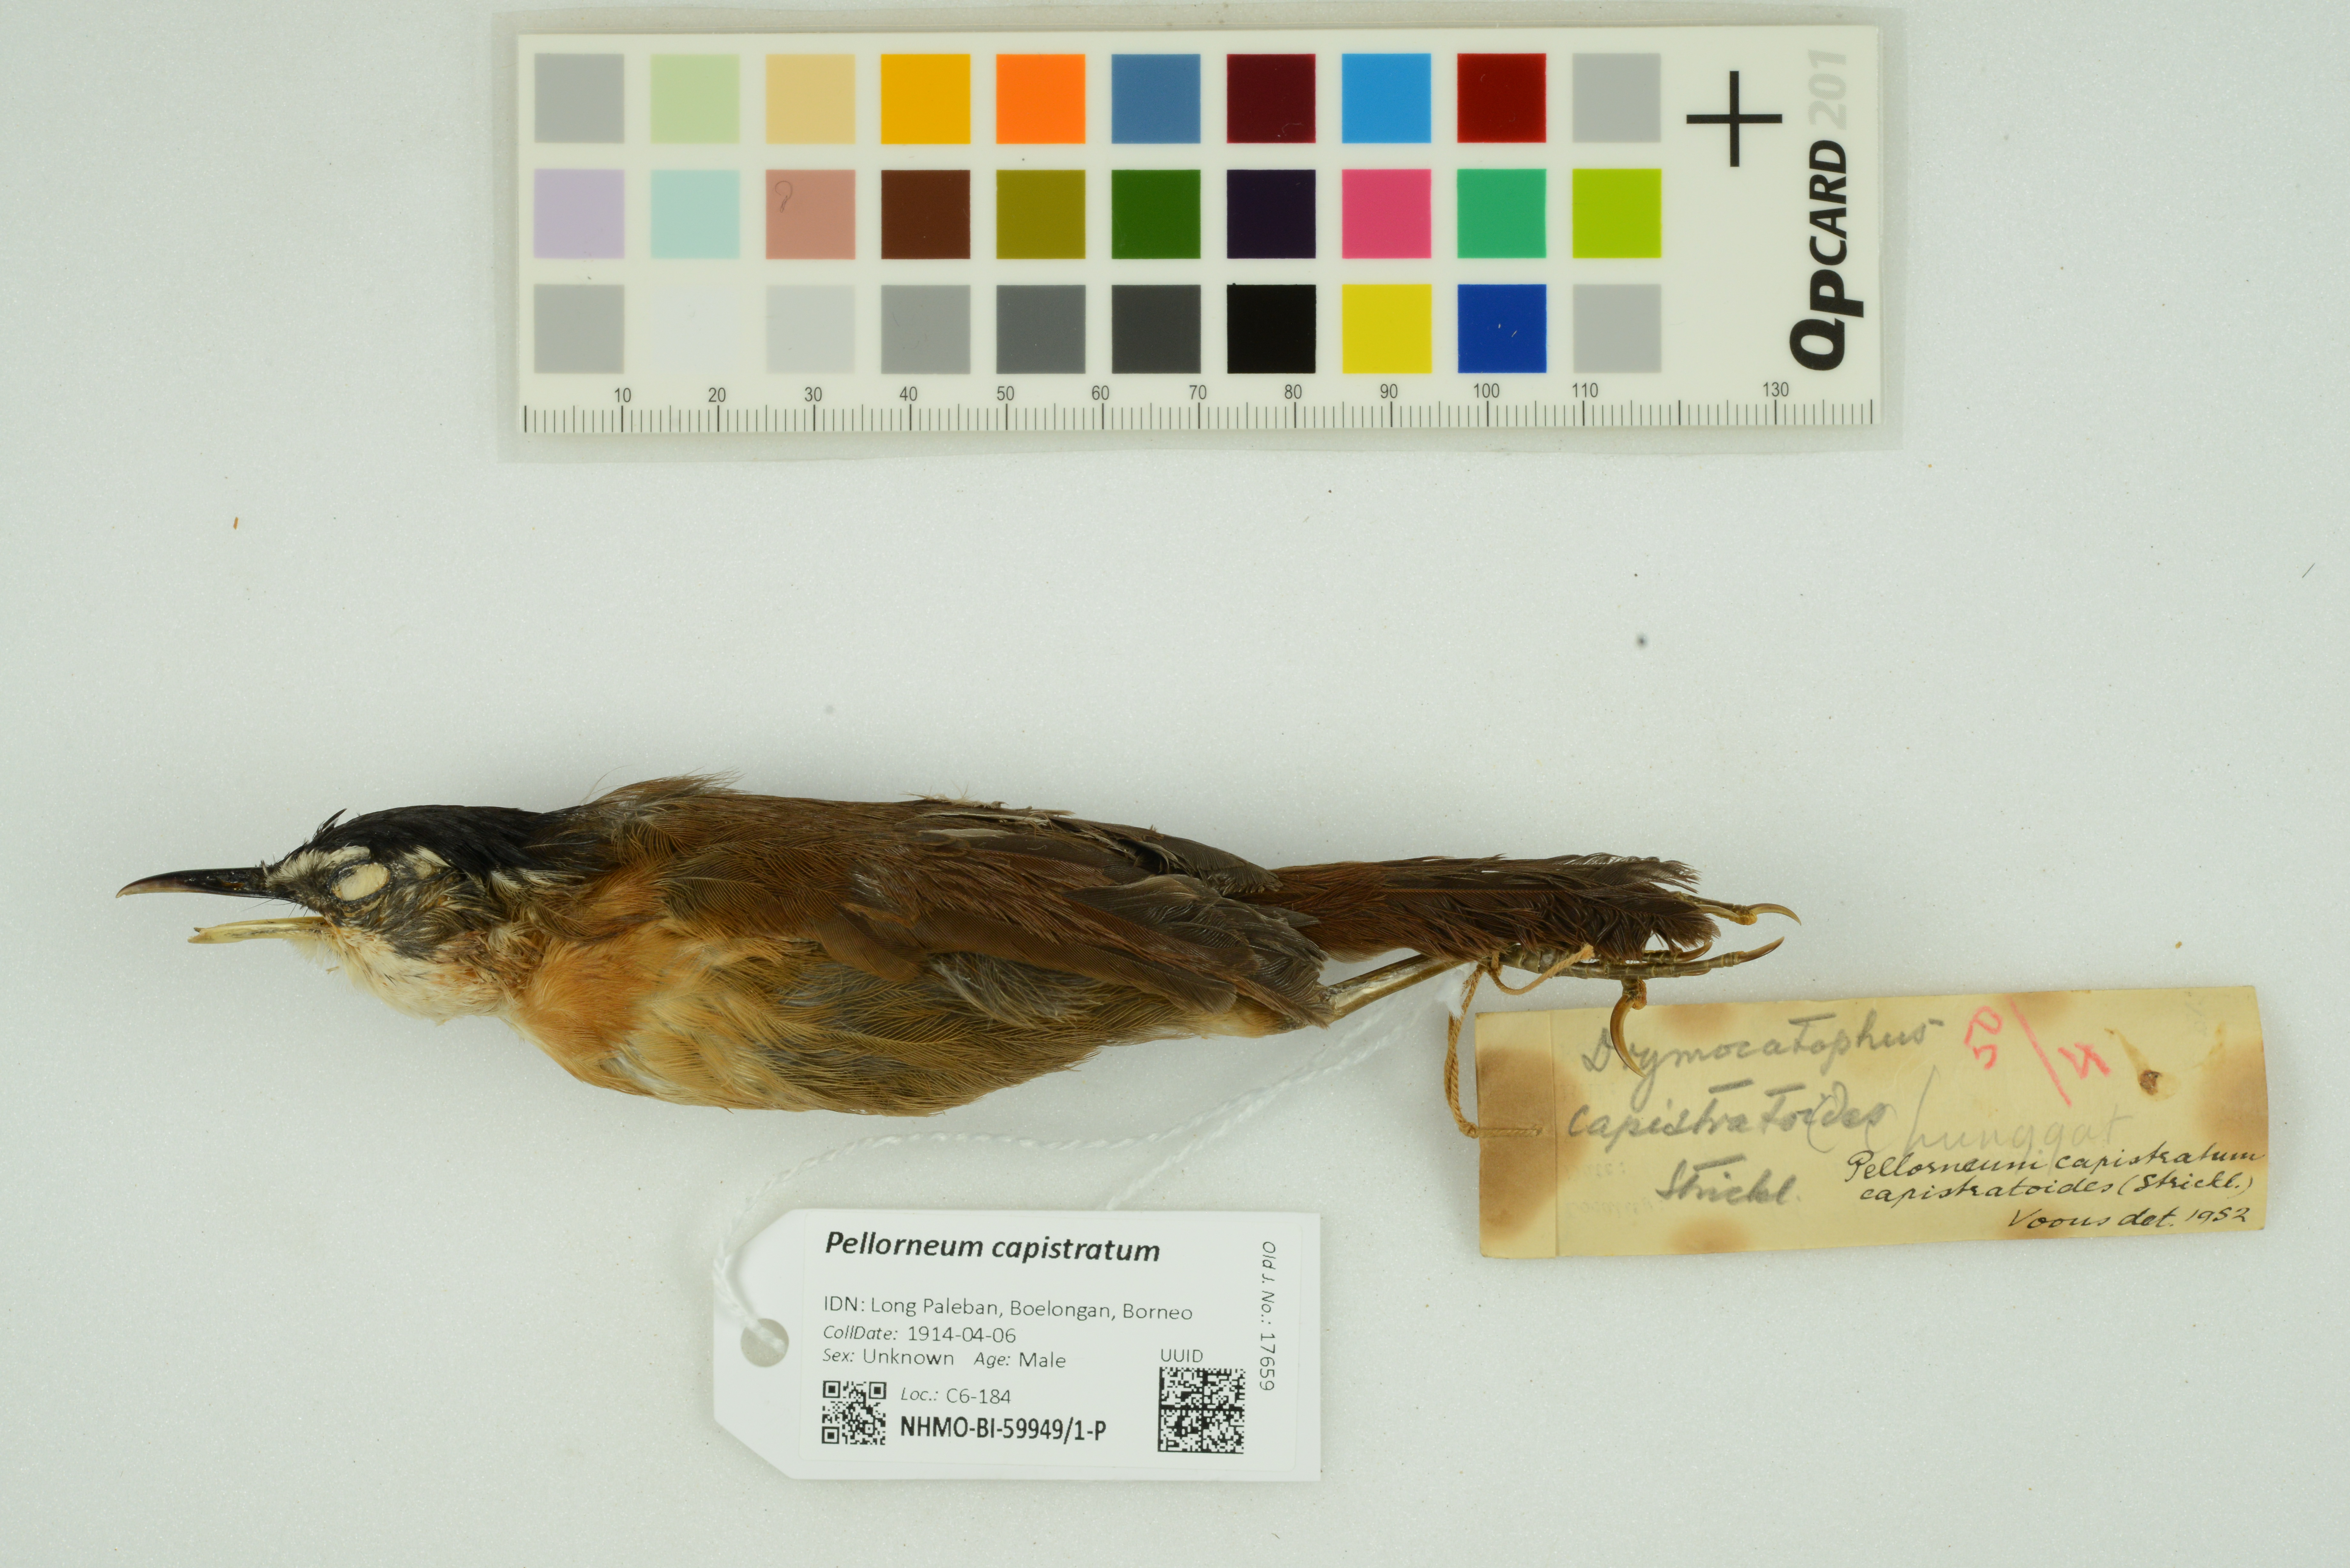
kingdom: Animalia
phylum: Chordata
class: Aves
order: Passeriformes
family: Pellorneidae
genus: Pellorneum
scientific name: Pellorneum capistratum
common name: Black-capped babbler
